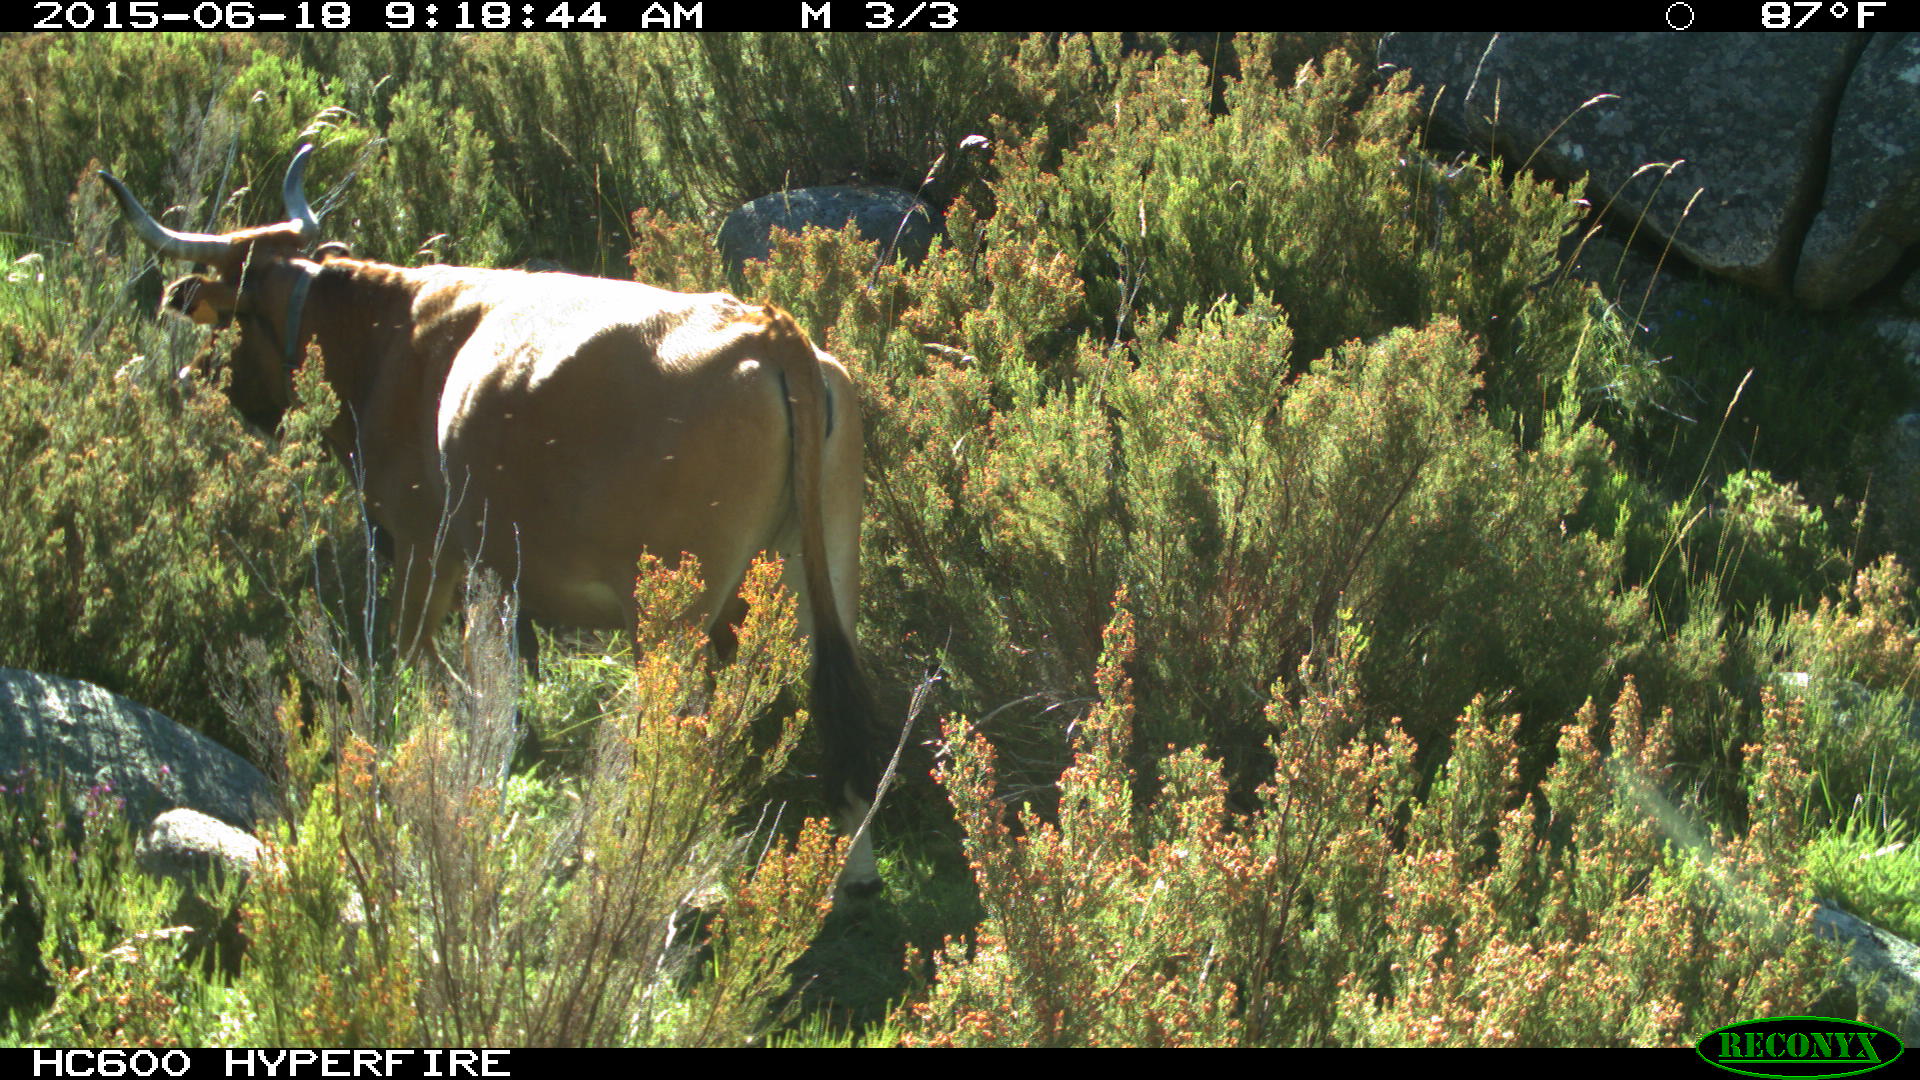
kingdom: Animalia
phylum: Chordata
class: Mammalia
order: Artiodactyla
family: Bovidae
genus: Bos
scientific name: Bos taurus
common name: Domesticated cattle
